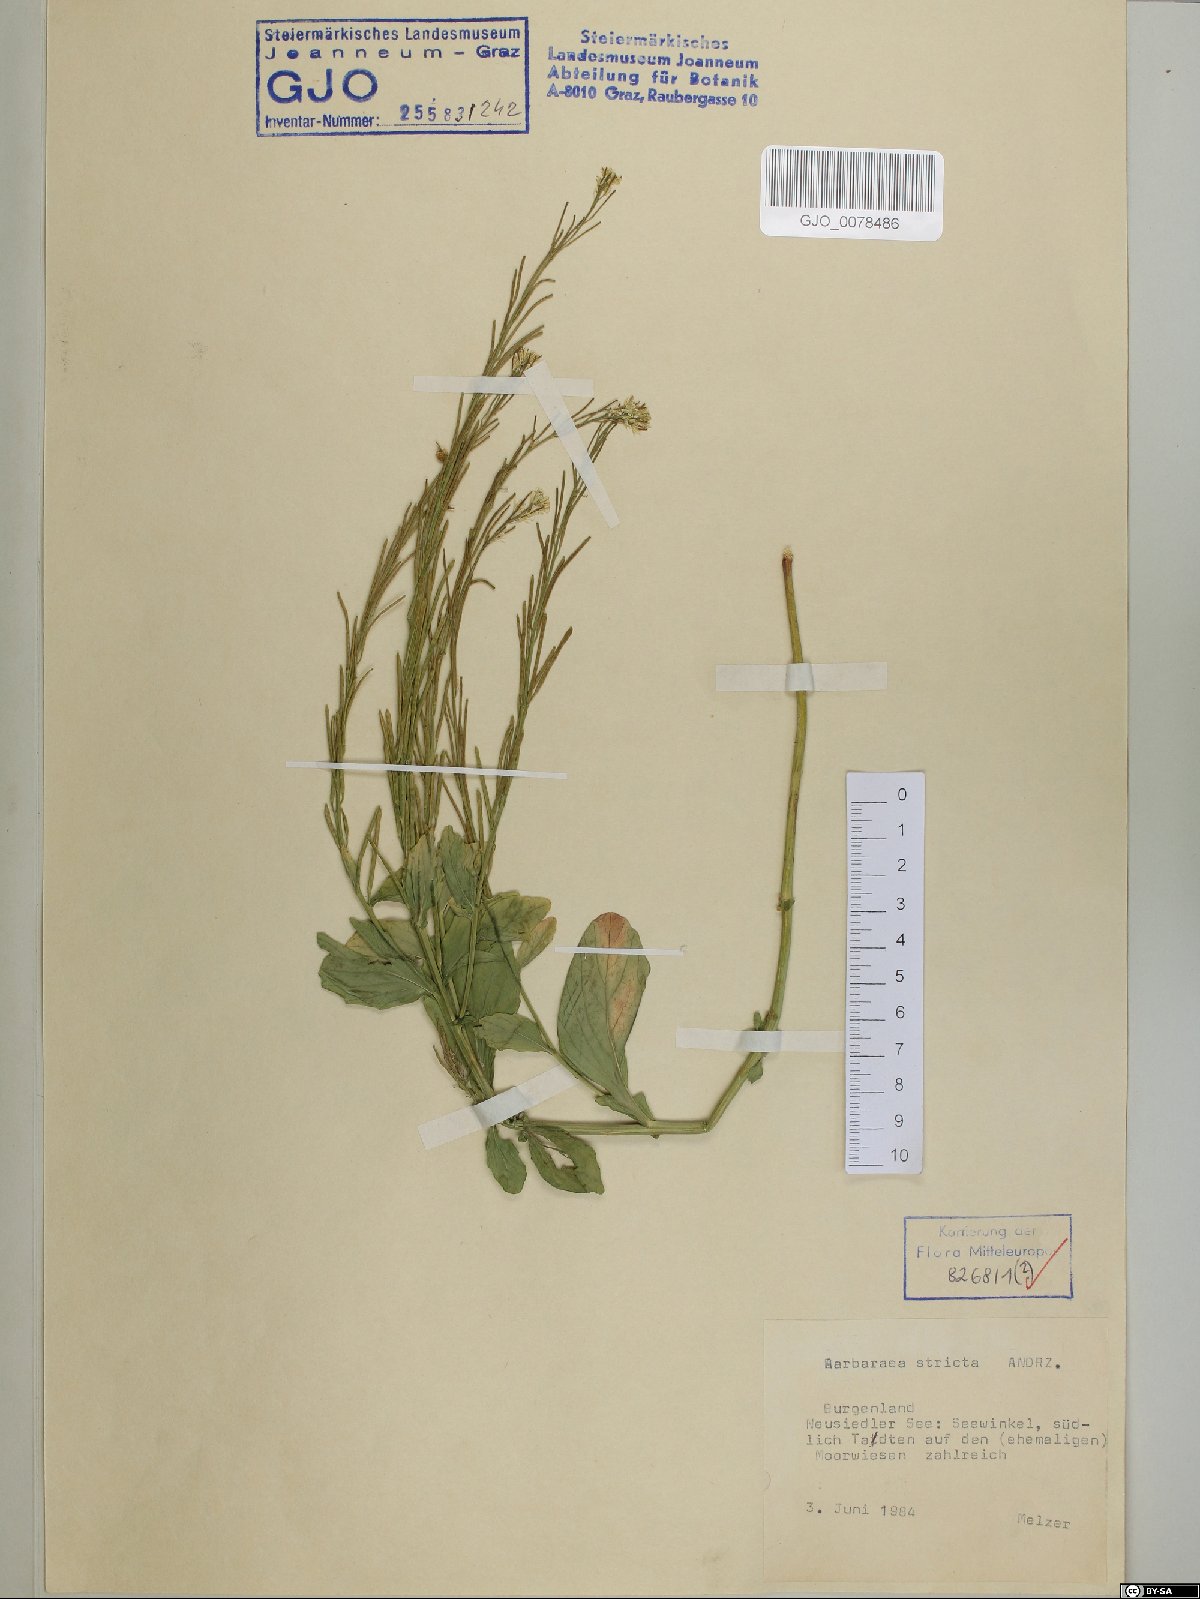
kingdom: Plantae
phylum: Tracheophyta
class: Magnoliopsida
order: Brassicales
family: Brassicaceae
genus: Barbarea
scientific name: Barbarea stricta
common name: Small-flowered winter-cress
